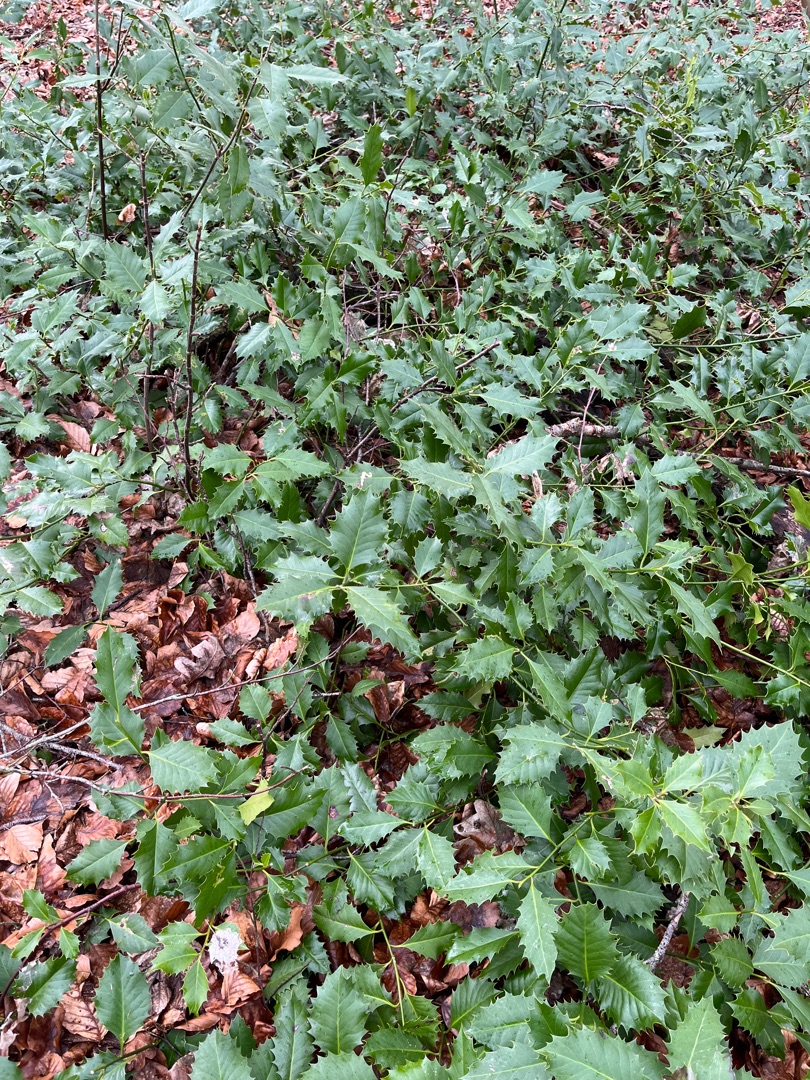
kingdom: Plantae
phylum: Tracheophyta
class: Magnoliopsida
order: Aquifoliales
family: Aquifoliaceae
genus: Ilex
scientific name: Ilex aquifolium
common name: Kristtorn
